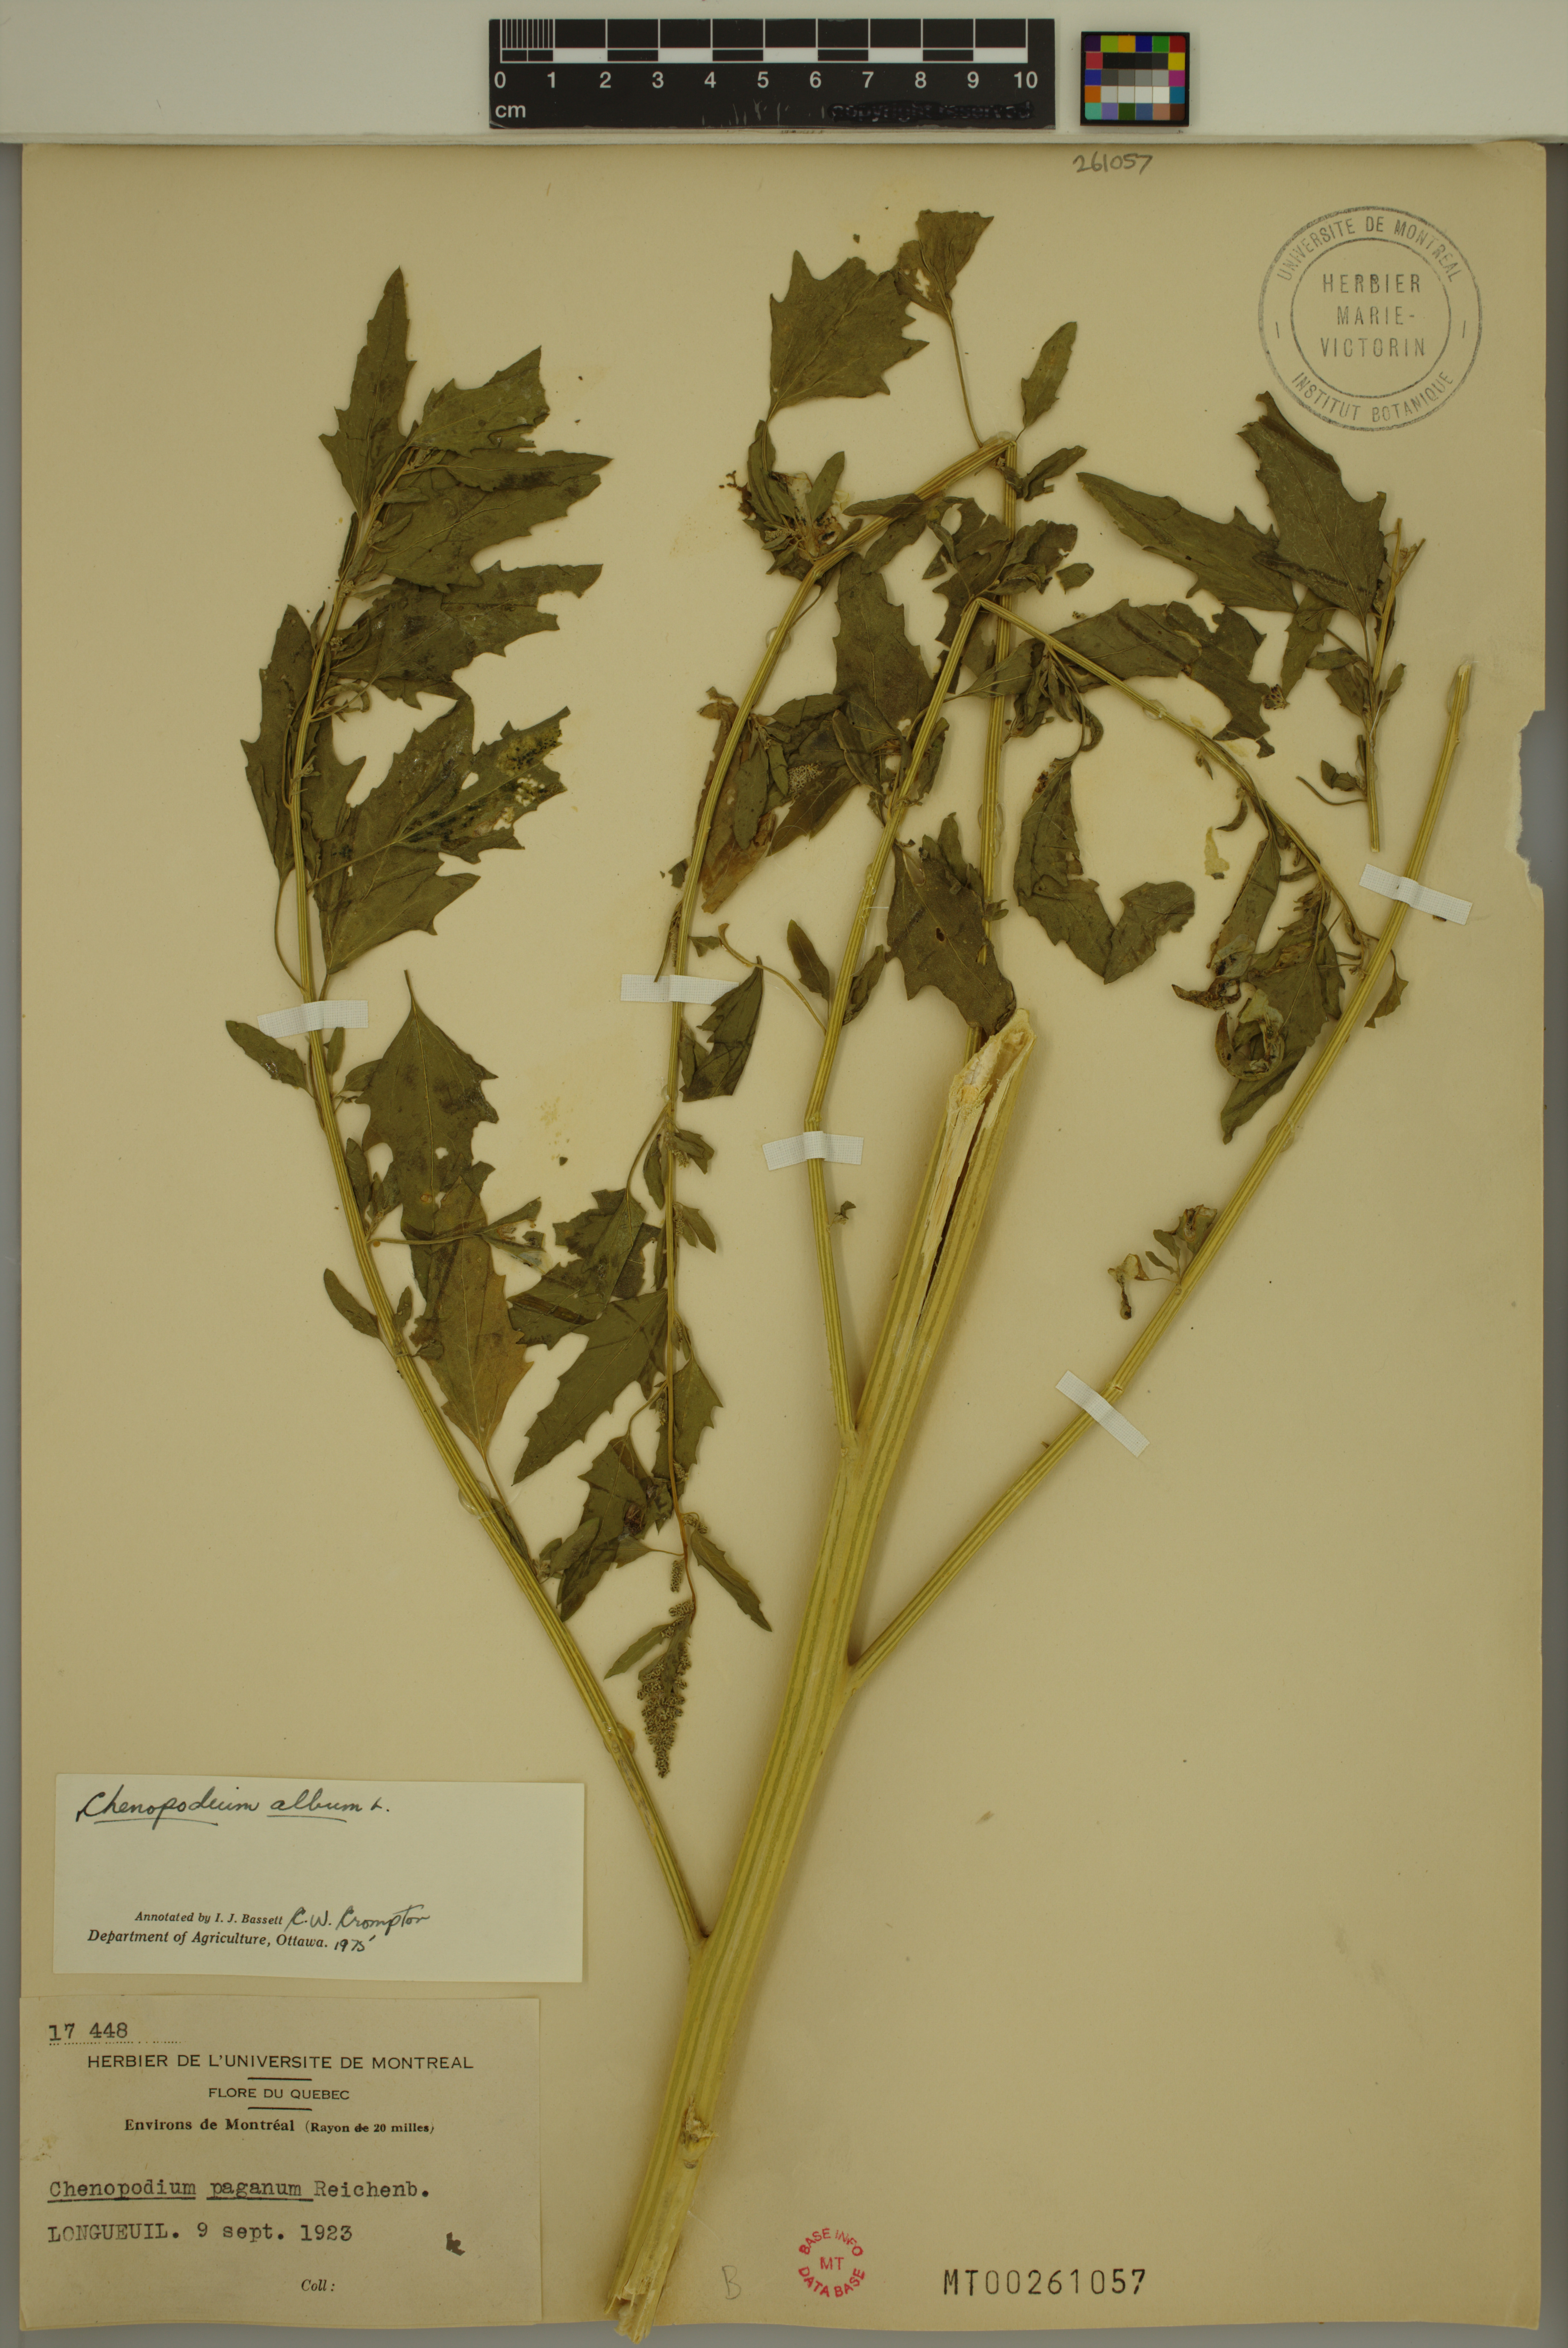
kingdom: Plantae
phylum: Tracheophyta
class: Magnoliopsida
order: Caryophyllales
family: Amaranthaceae
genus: Chenopodium
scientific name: Chenopodium album
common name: Fat-hen
